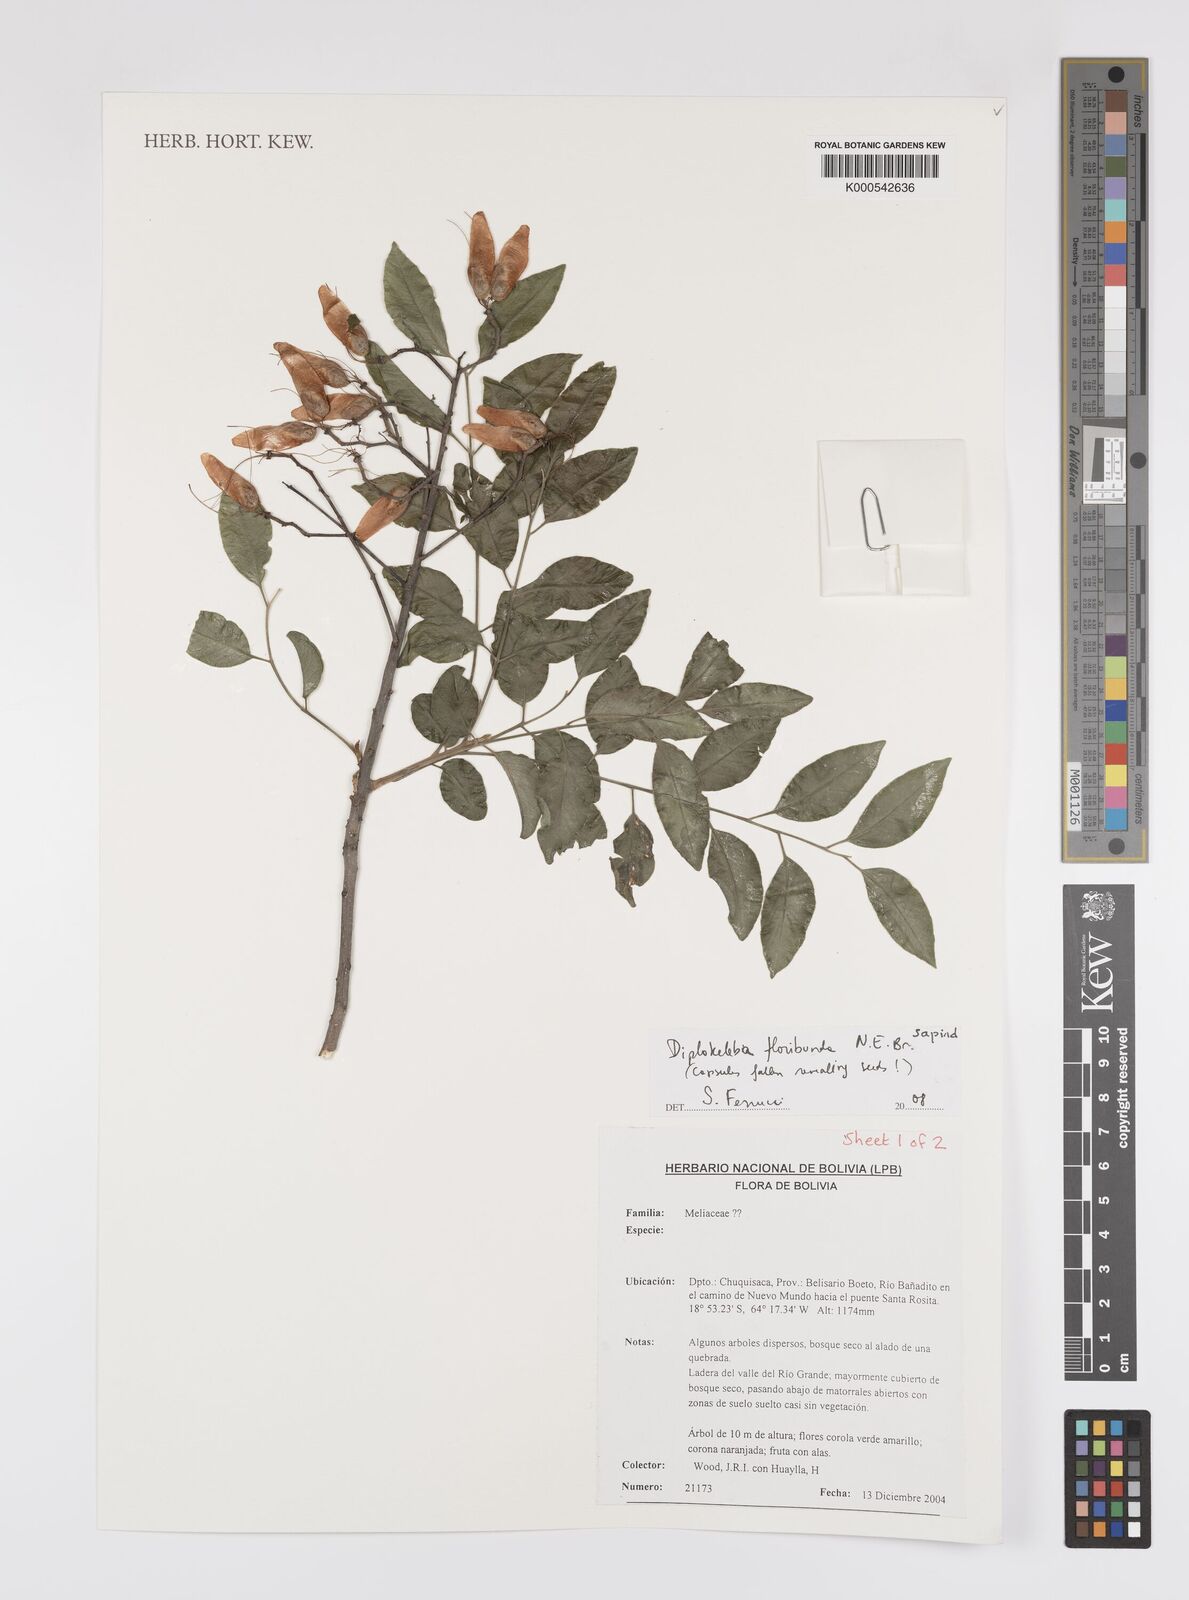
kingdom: Plantae
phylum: Tracheophyta
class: Magnoliopsida
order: Sapindales
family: Sapindaceae
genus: Diplokeleba
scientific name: Diplokeleba floribunda
